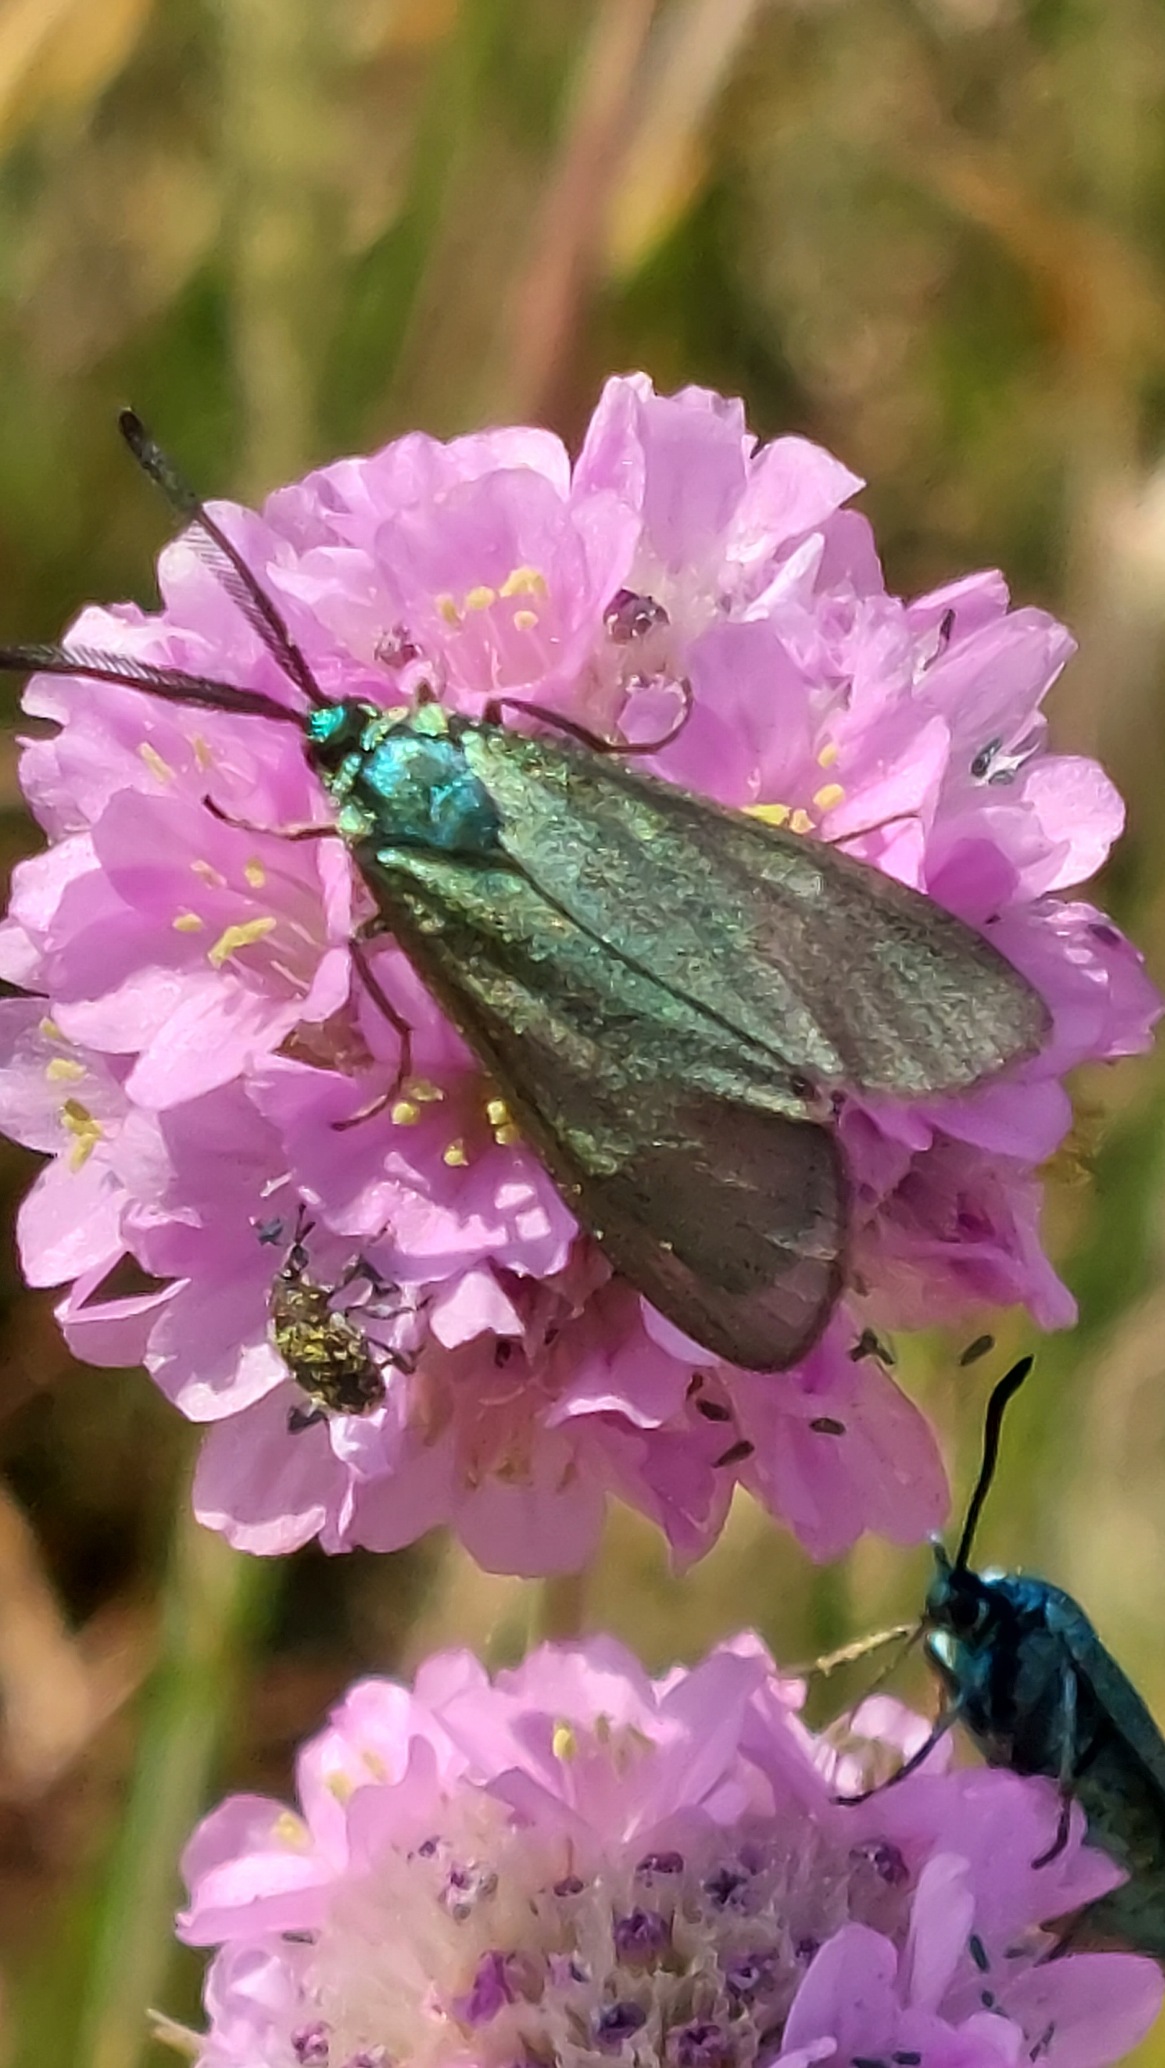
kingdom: Animalia
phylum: Arthropoda
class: Insecta
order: Lepidoptera
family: Zygaenidae
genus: Adscita
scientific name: Adscita statices
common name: Metalvinge
